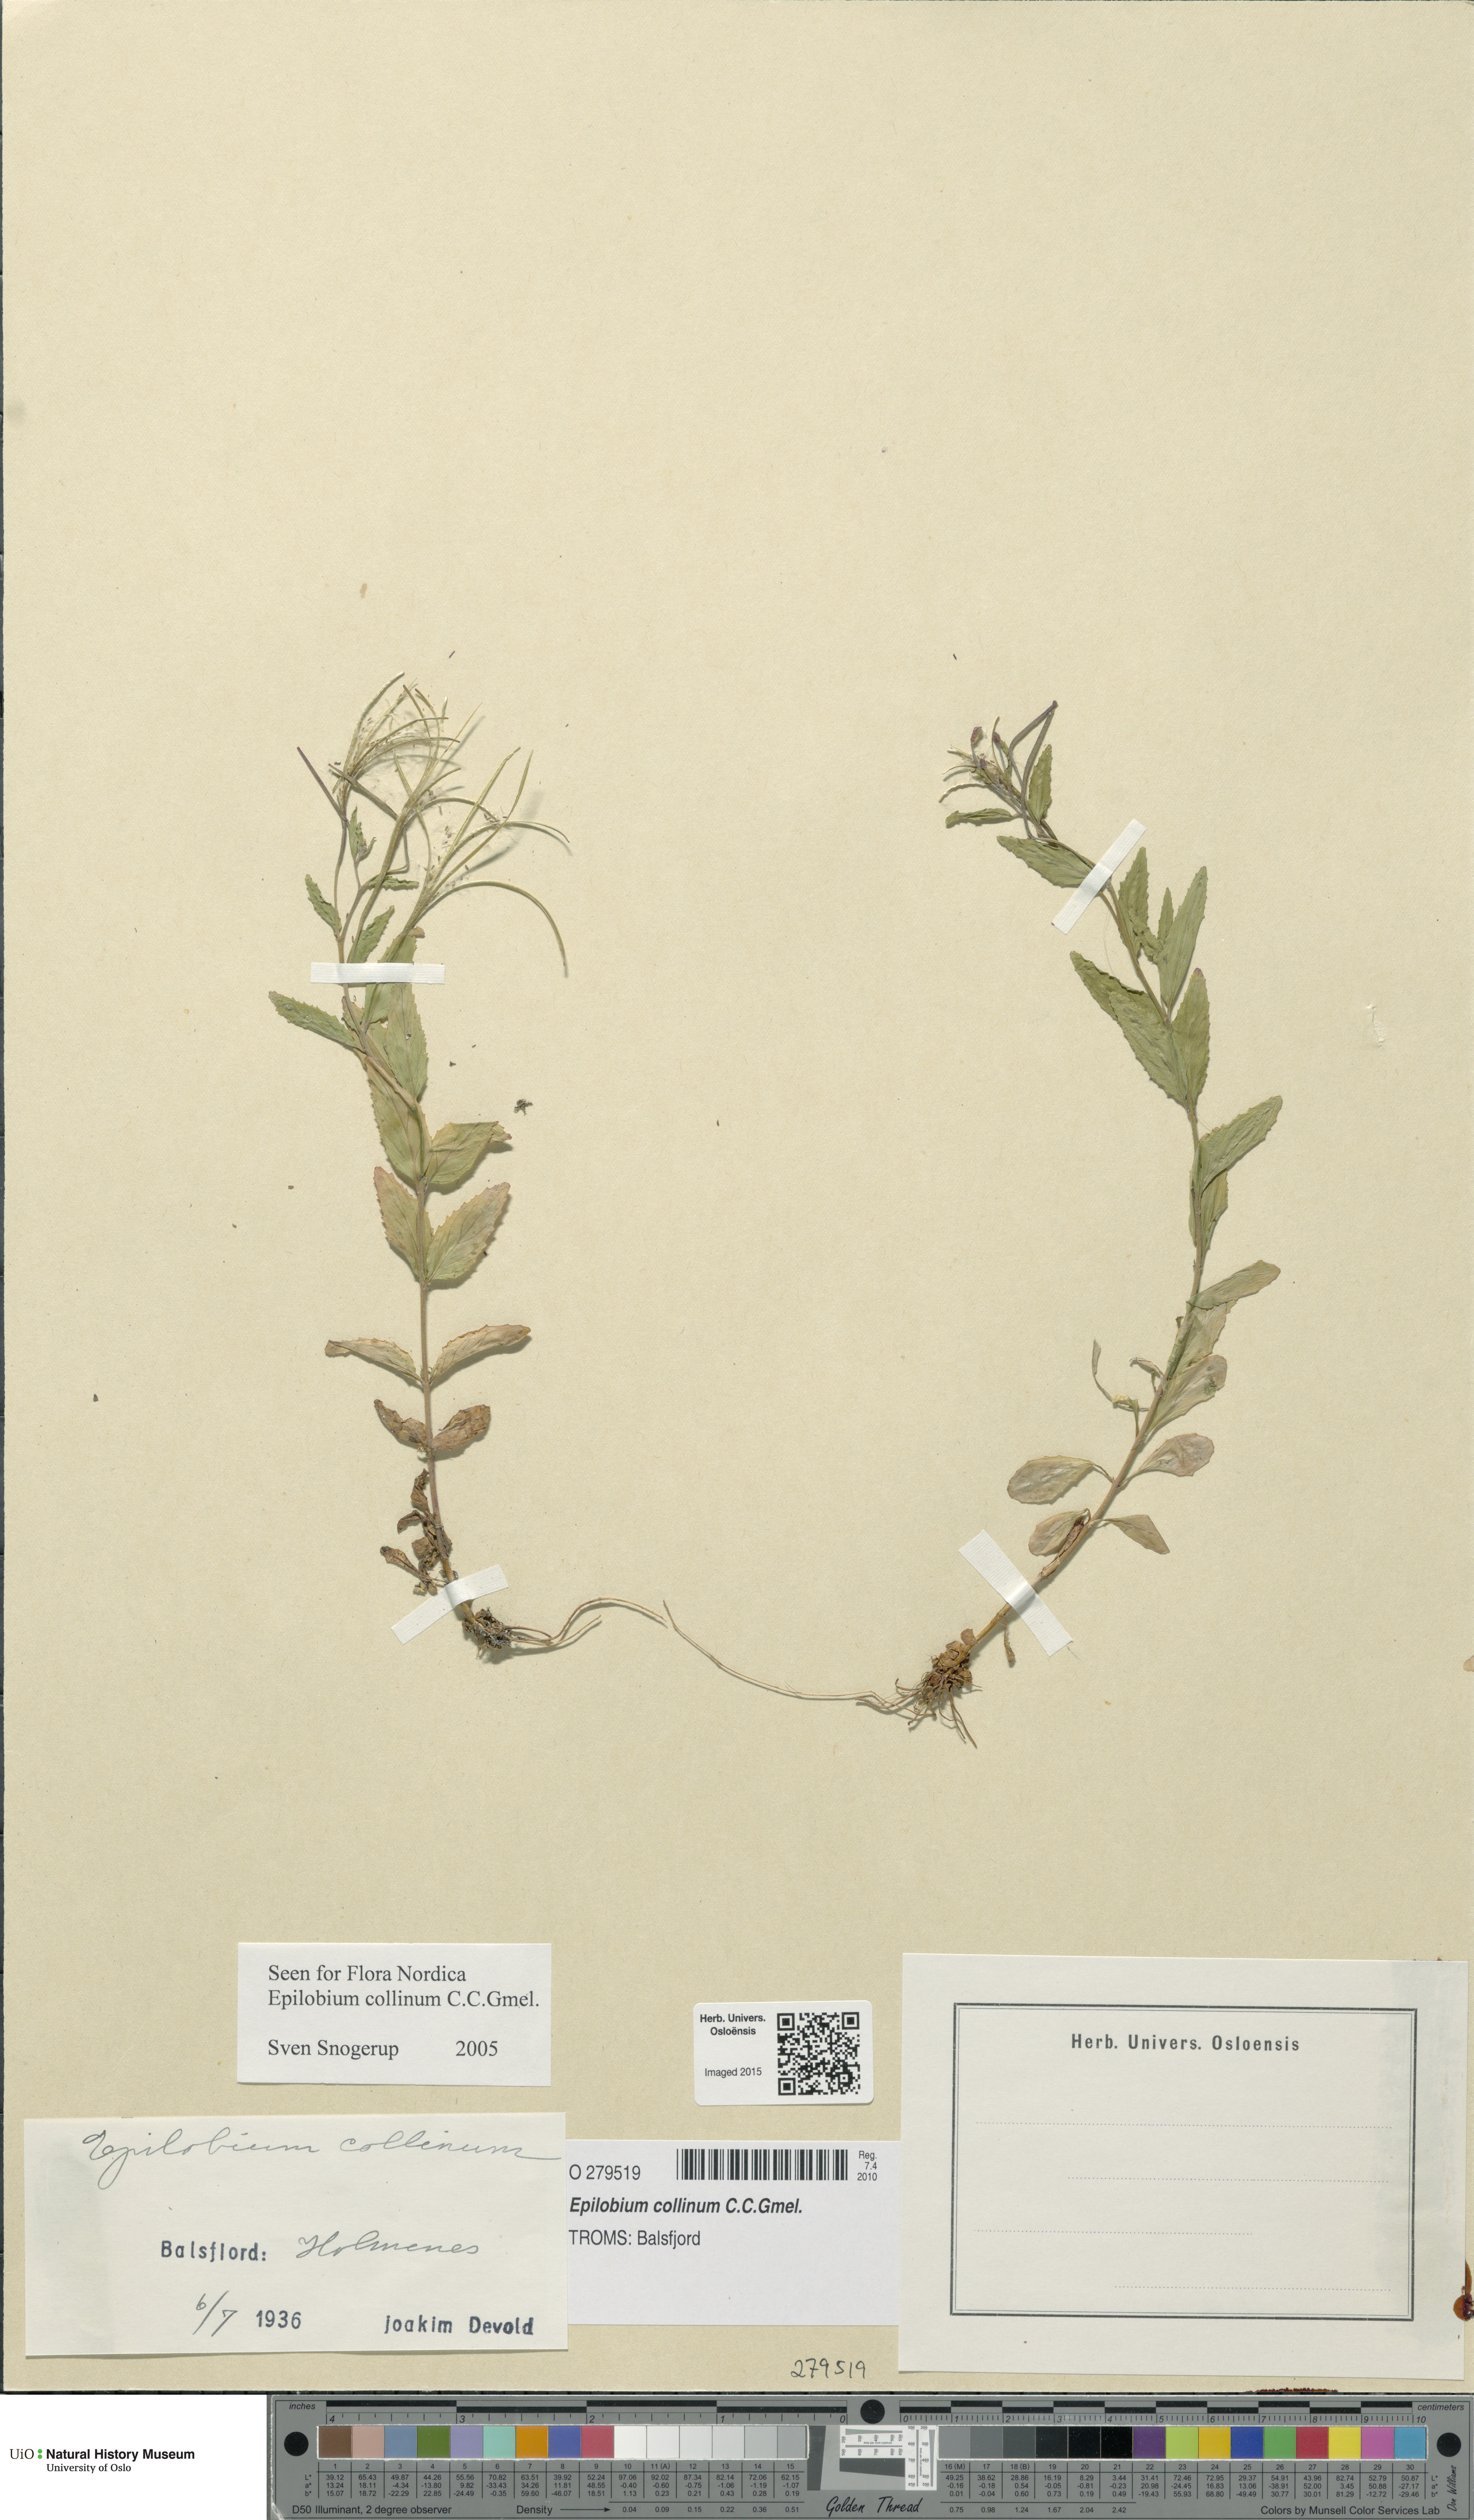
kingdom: Plantae
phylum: Tracheophyta
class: Magnoliopsida
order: Myrtales
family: Onagraceae
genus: Epilobium
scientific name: Epilobium collinum
